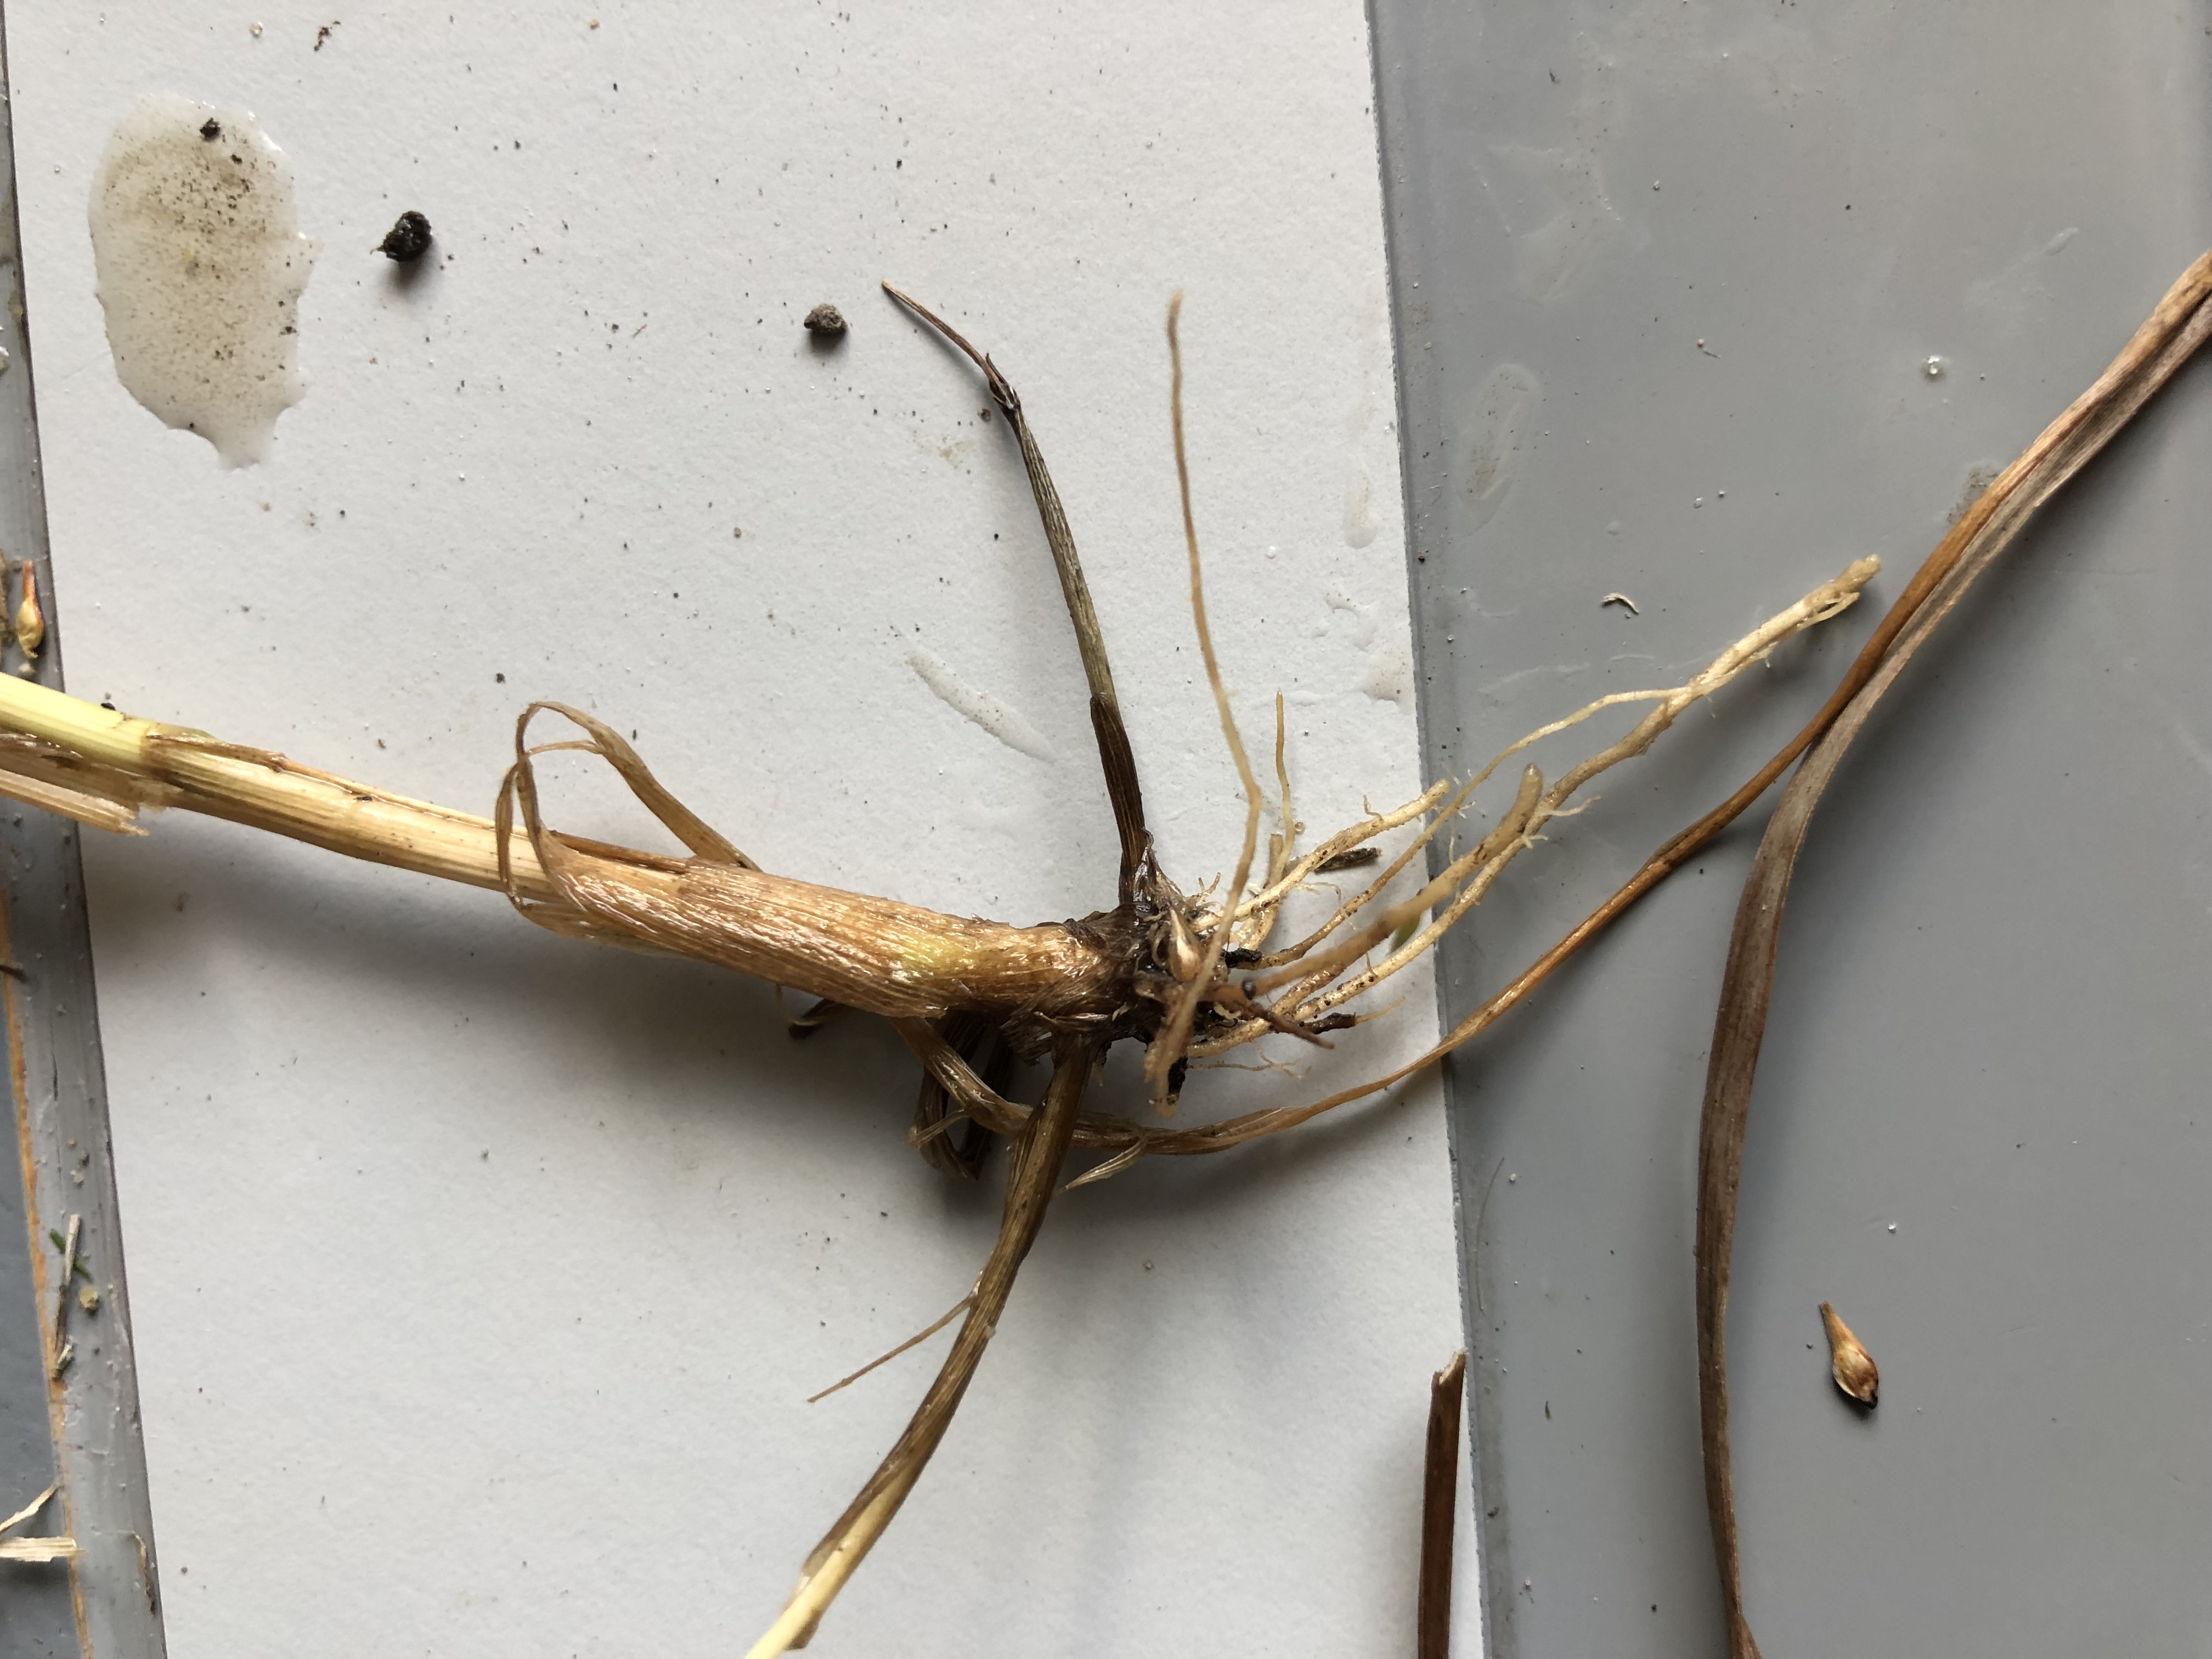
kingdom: Plantae
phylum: Tracheophyta
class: Liliopsida
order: Poales
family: Poaceae
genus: Agrostis
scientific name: Agrostis gigantea
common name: Stortoppet hvene
